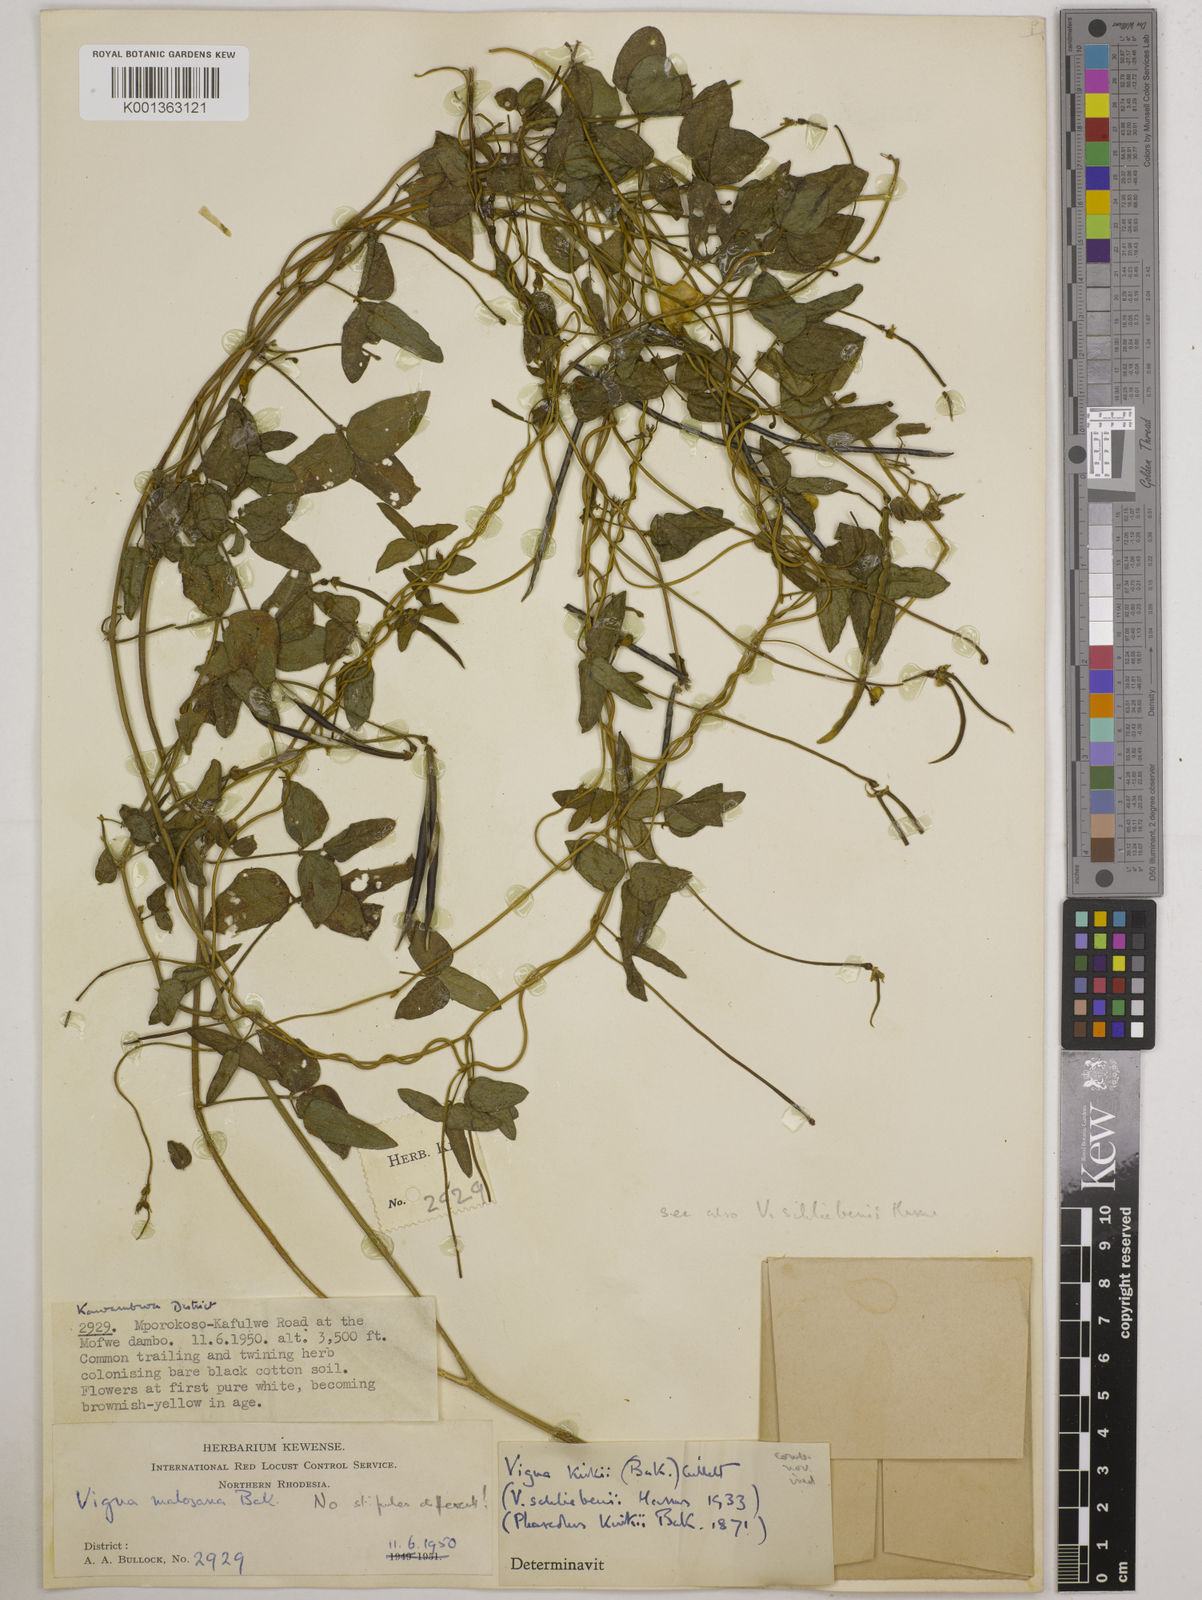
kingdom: Plantae
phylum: Tracheophyta
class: Magnoliopsida
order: Fabales
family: Fabaceae
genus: Vigna
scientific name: Vigna kirkii
